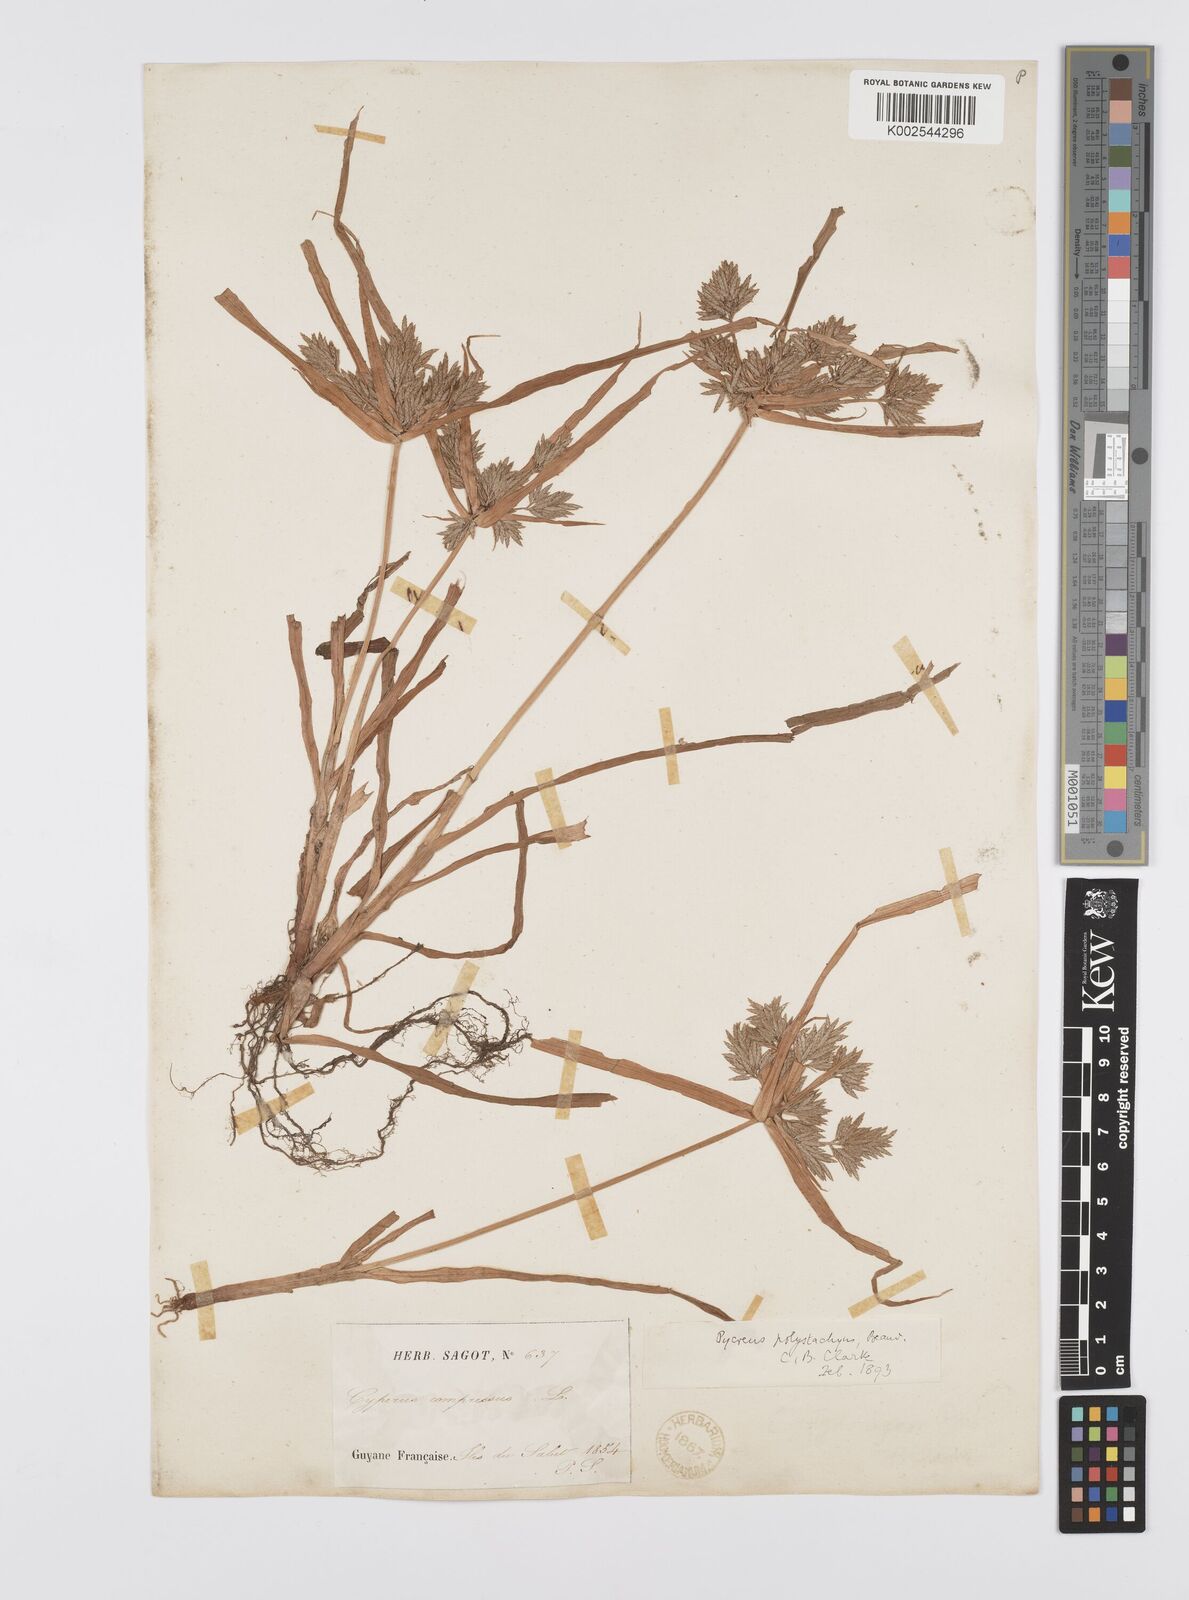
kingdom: Plantae
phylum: Tracheophyta
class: Liliopsida
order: Poales
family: Cyperaceae
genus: Cyperus
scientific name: Cyperus polystachyos
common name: Bunchy flat sedge
